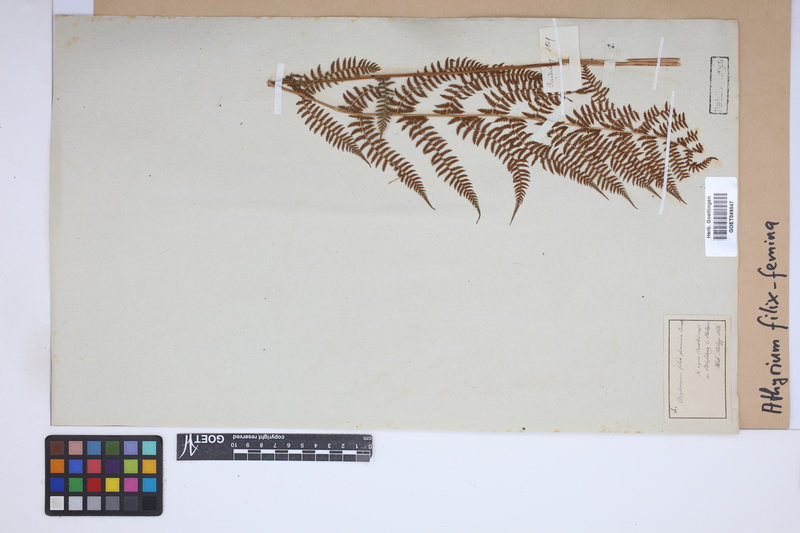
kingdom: Plantae
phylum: Tracheophyta
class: Polypodiopsida
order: Polypodiales
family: Athyriaceae
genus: Athyrium
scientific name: Athyrium filix-femina
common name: Lady fern
